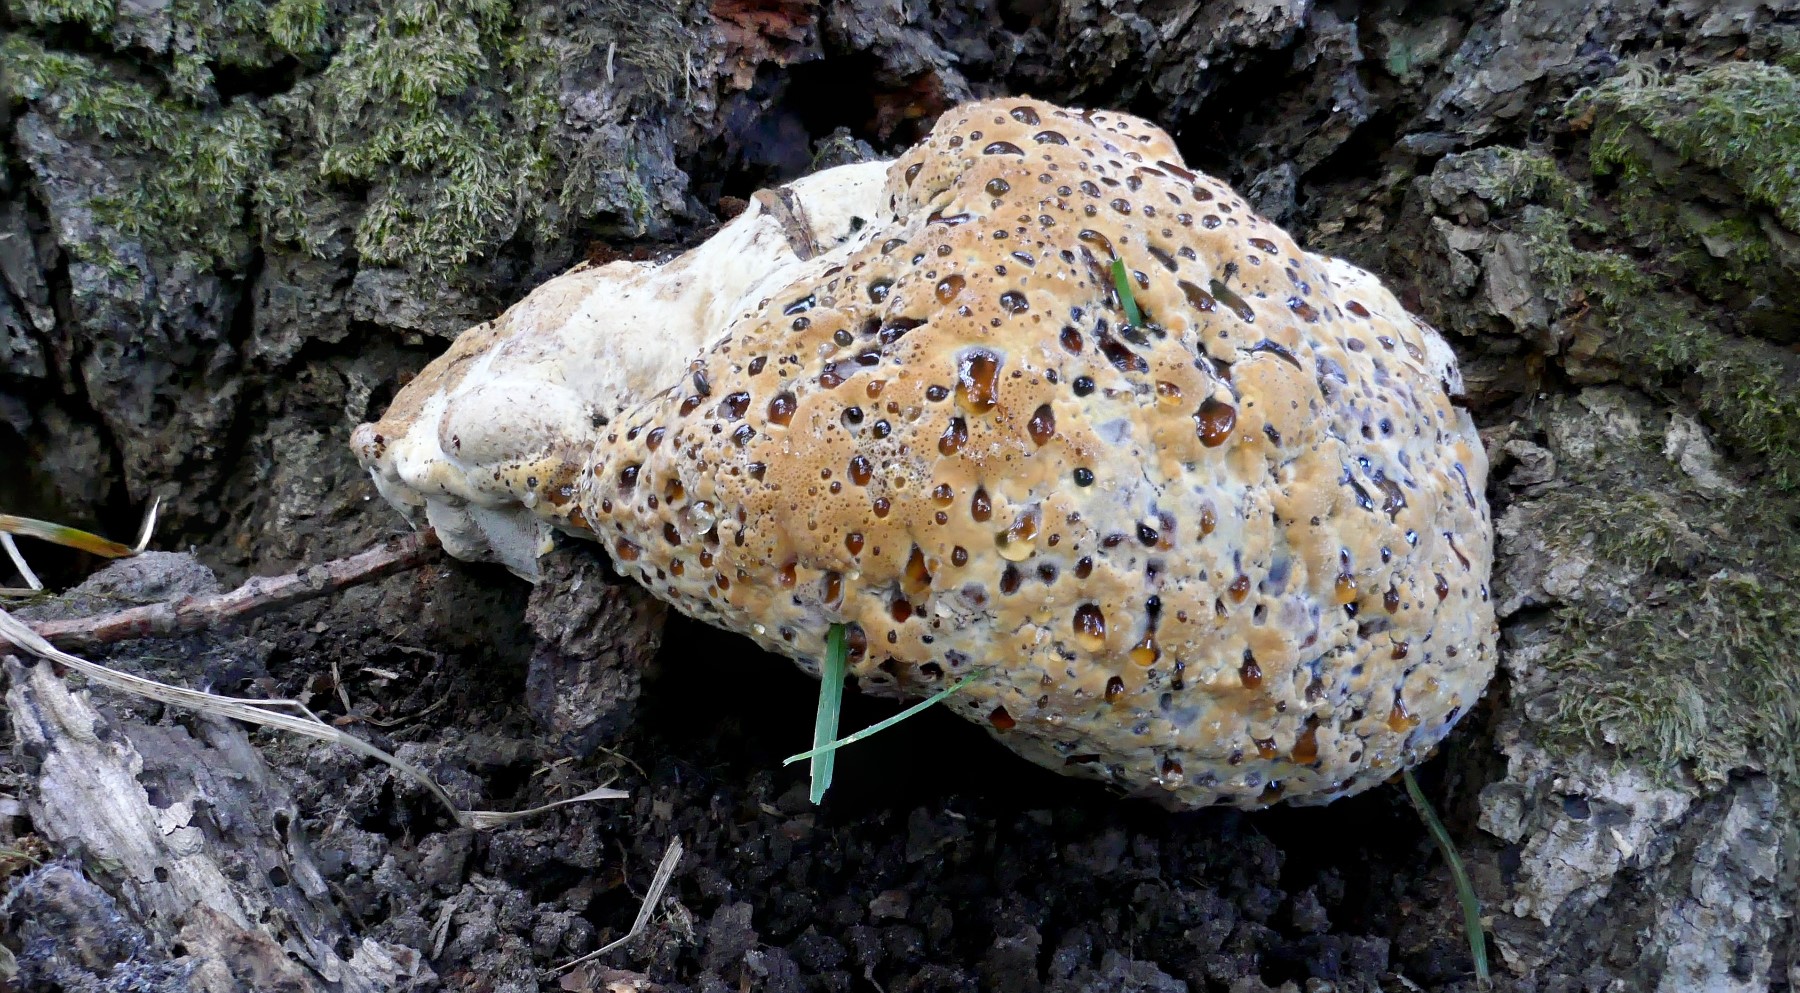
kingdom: Fungi
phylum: Basidiomycota
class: Agaricomycetes
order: Hymenochaetales
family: Hymenochaetaceae
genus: Pseudoinonotus
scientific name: Pseudoinonotus dryadeus
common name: ege-spejlporesvamp
